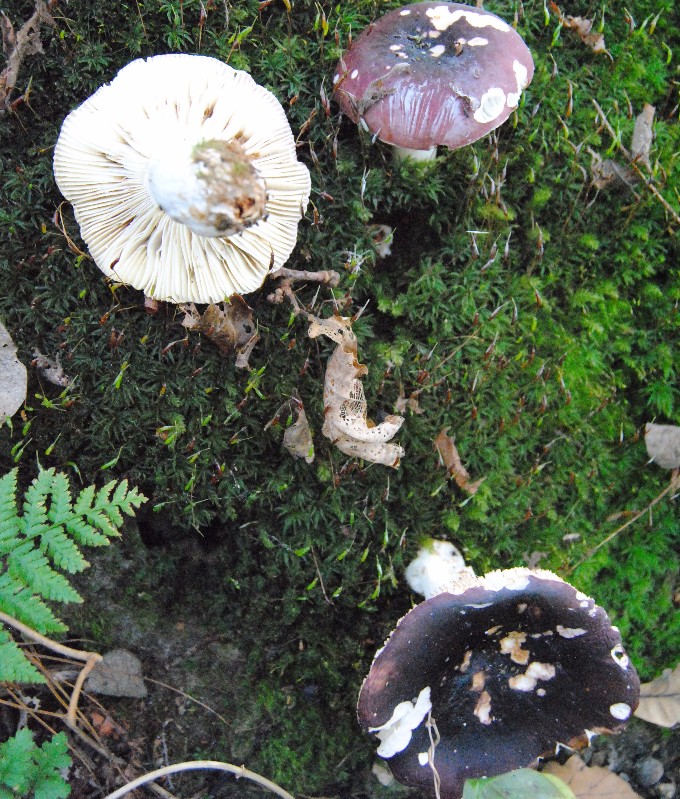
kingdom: Fungi
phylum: Basidiomycota
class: Agaricomycetes
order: Russulales
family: Russulaceae
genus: Russula
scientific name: Russula atropurpurea
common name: purpurbroget skørhat
